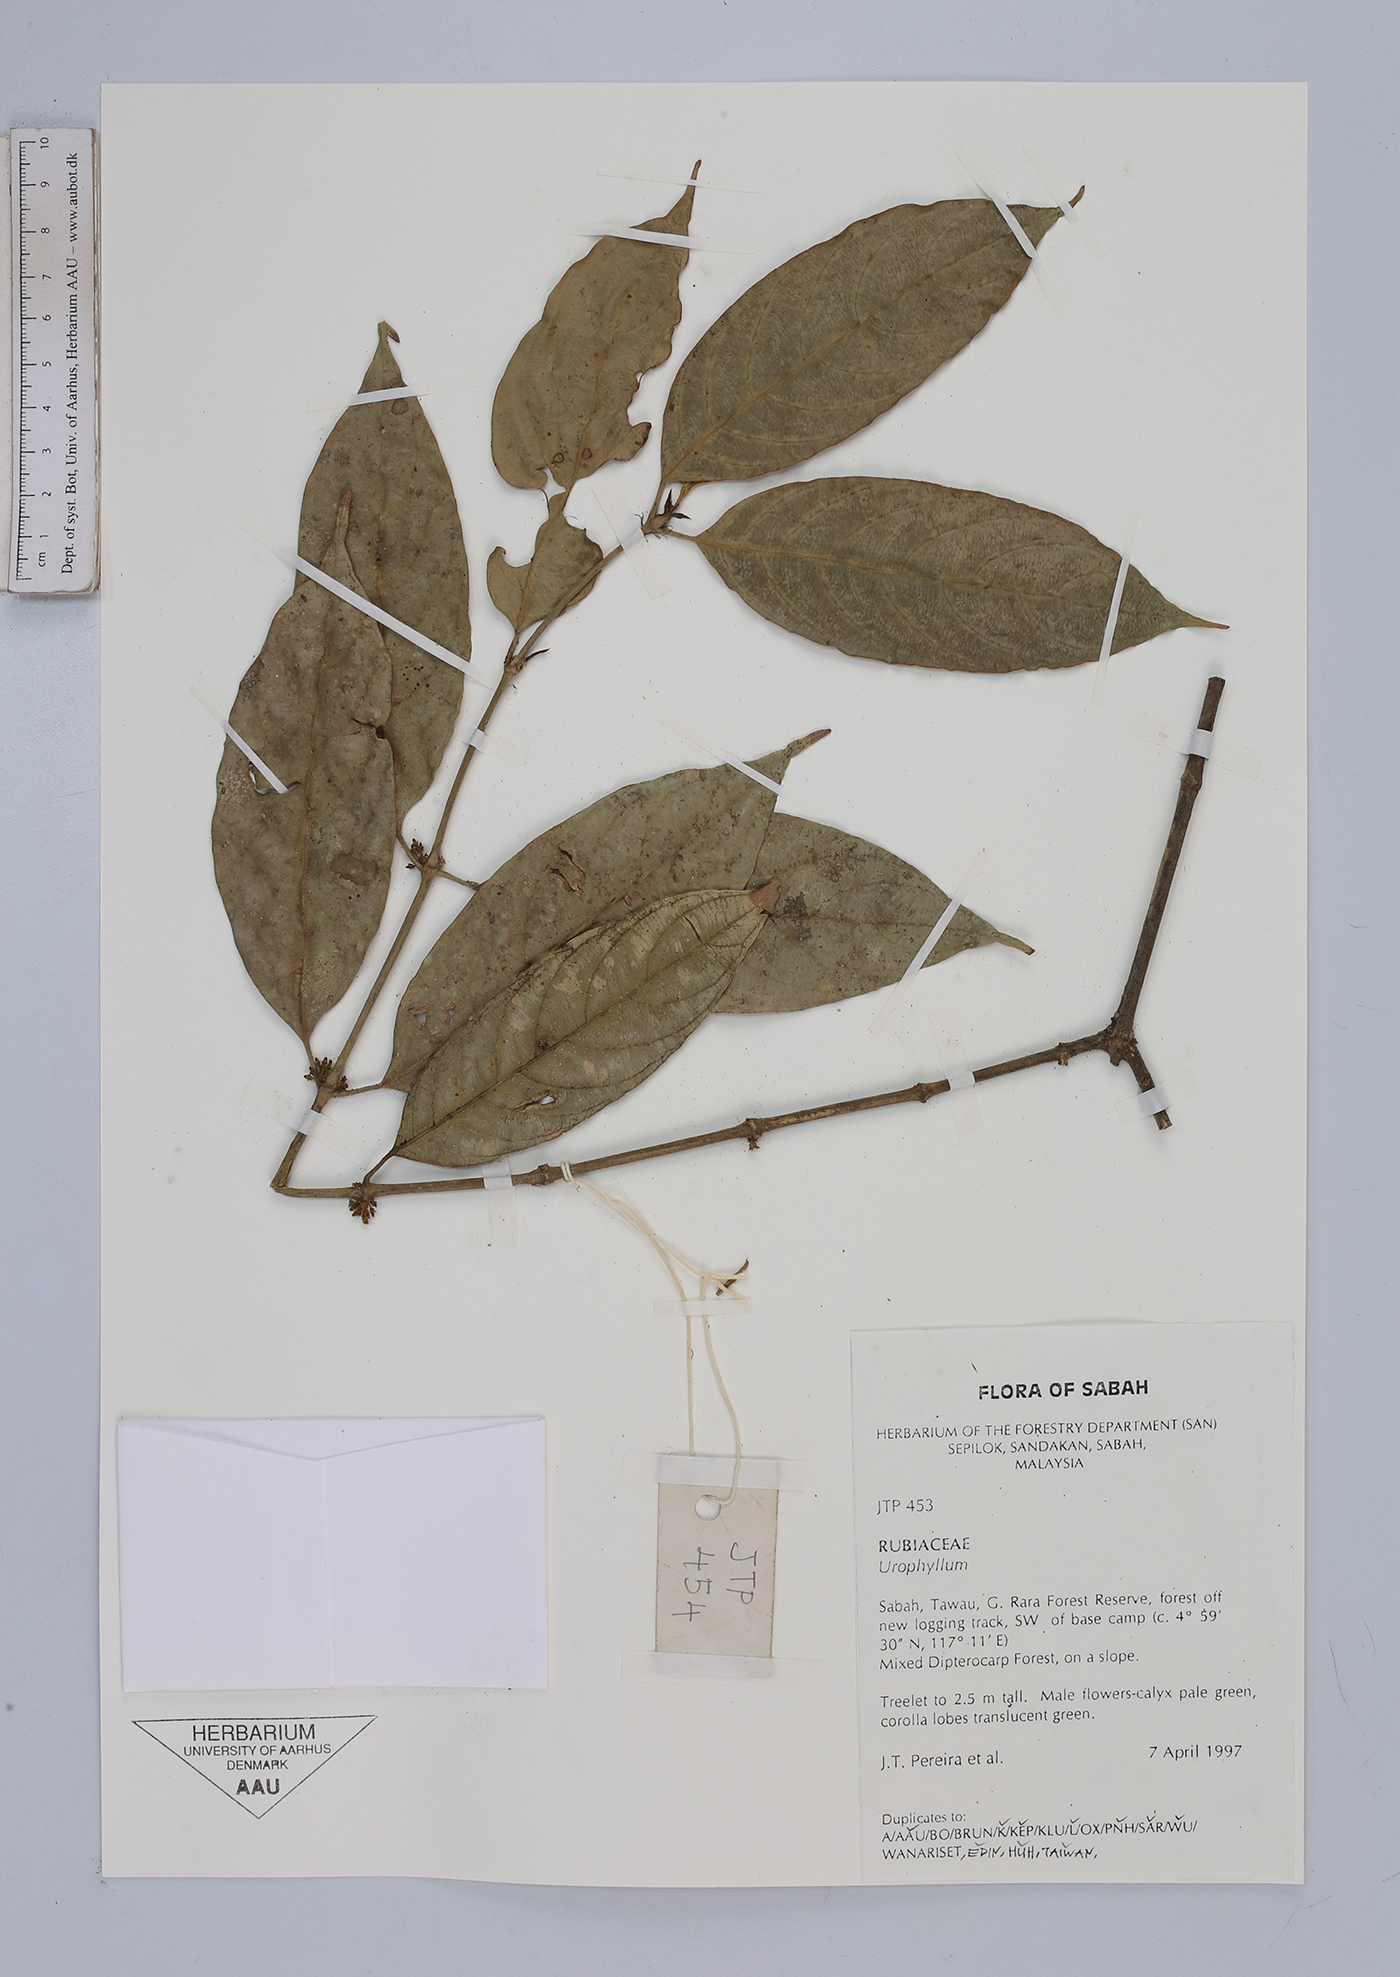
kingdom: Plantae
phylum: Tracheophyta
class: Magnoliopsida
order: Gentianales
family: Rubiaceae
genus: Urophyllum
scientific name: Urophyllum
